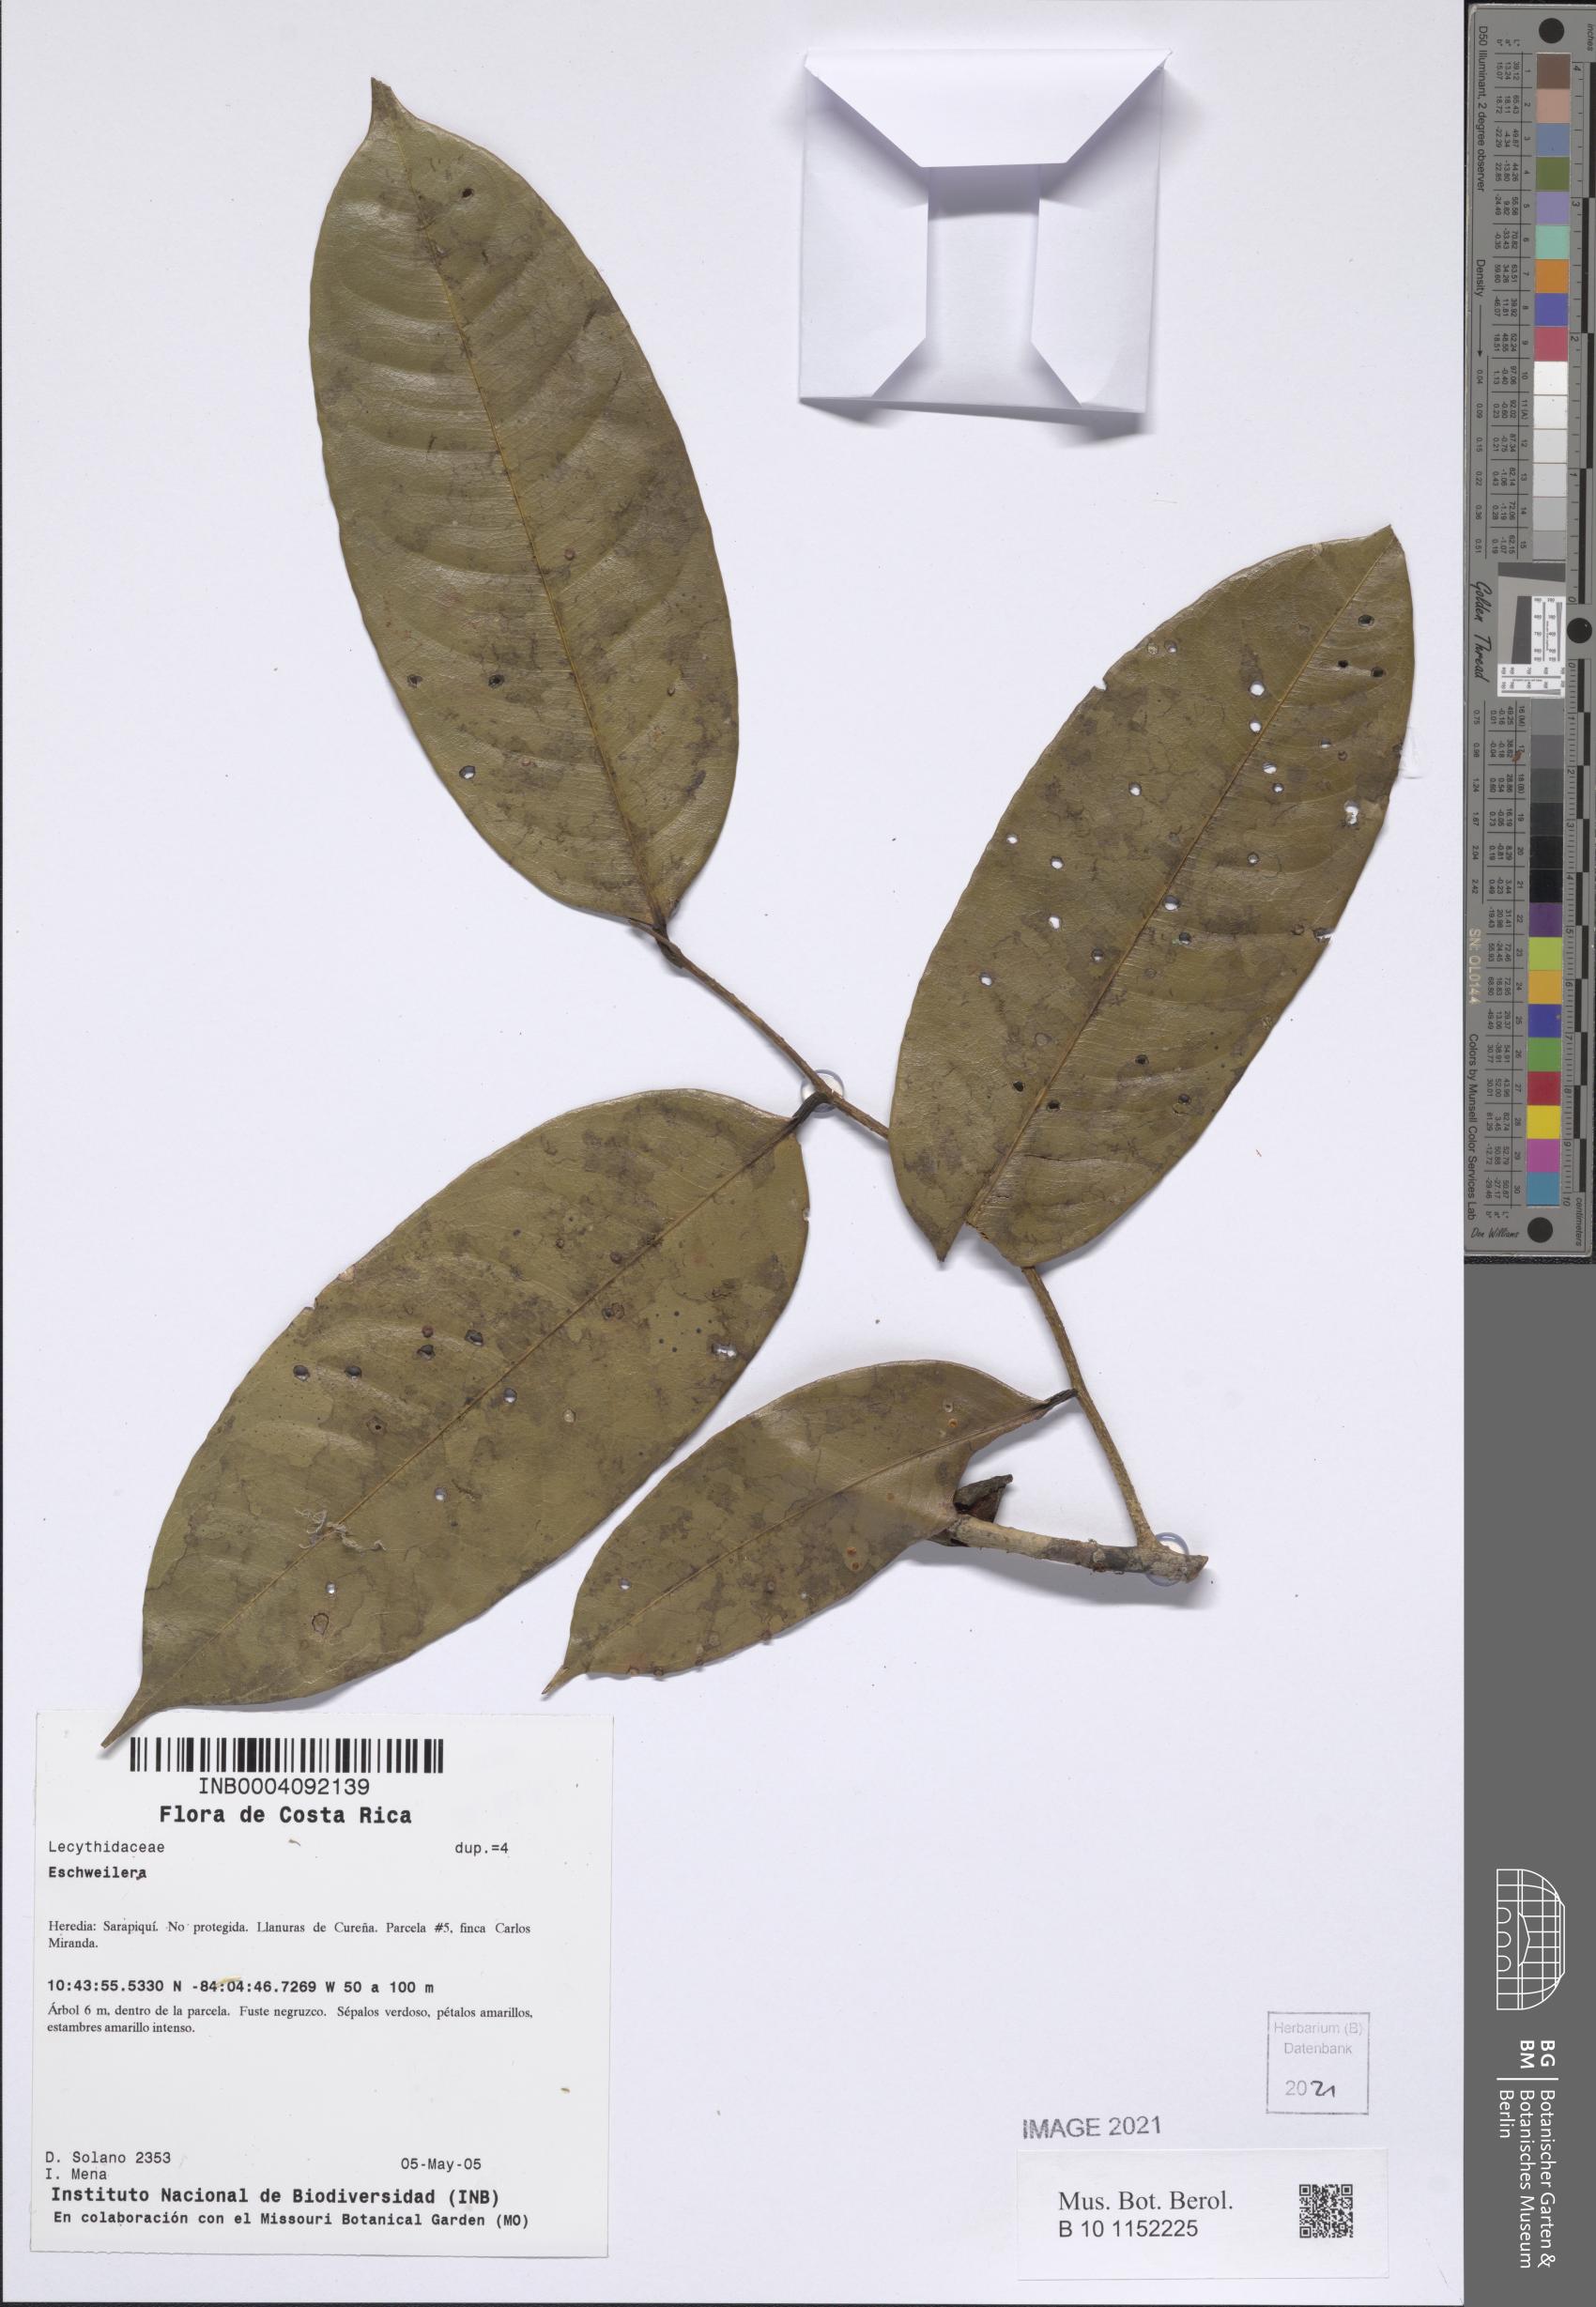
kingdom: Plantae
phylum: Tracheophyta
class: Magnoliopsida
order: Ericales
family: Lecythidaceae
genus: Eschweilera
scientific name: Eschweilera
